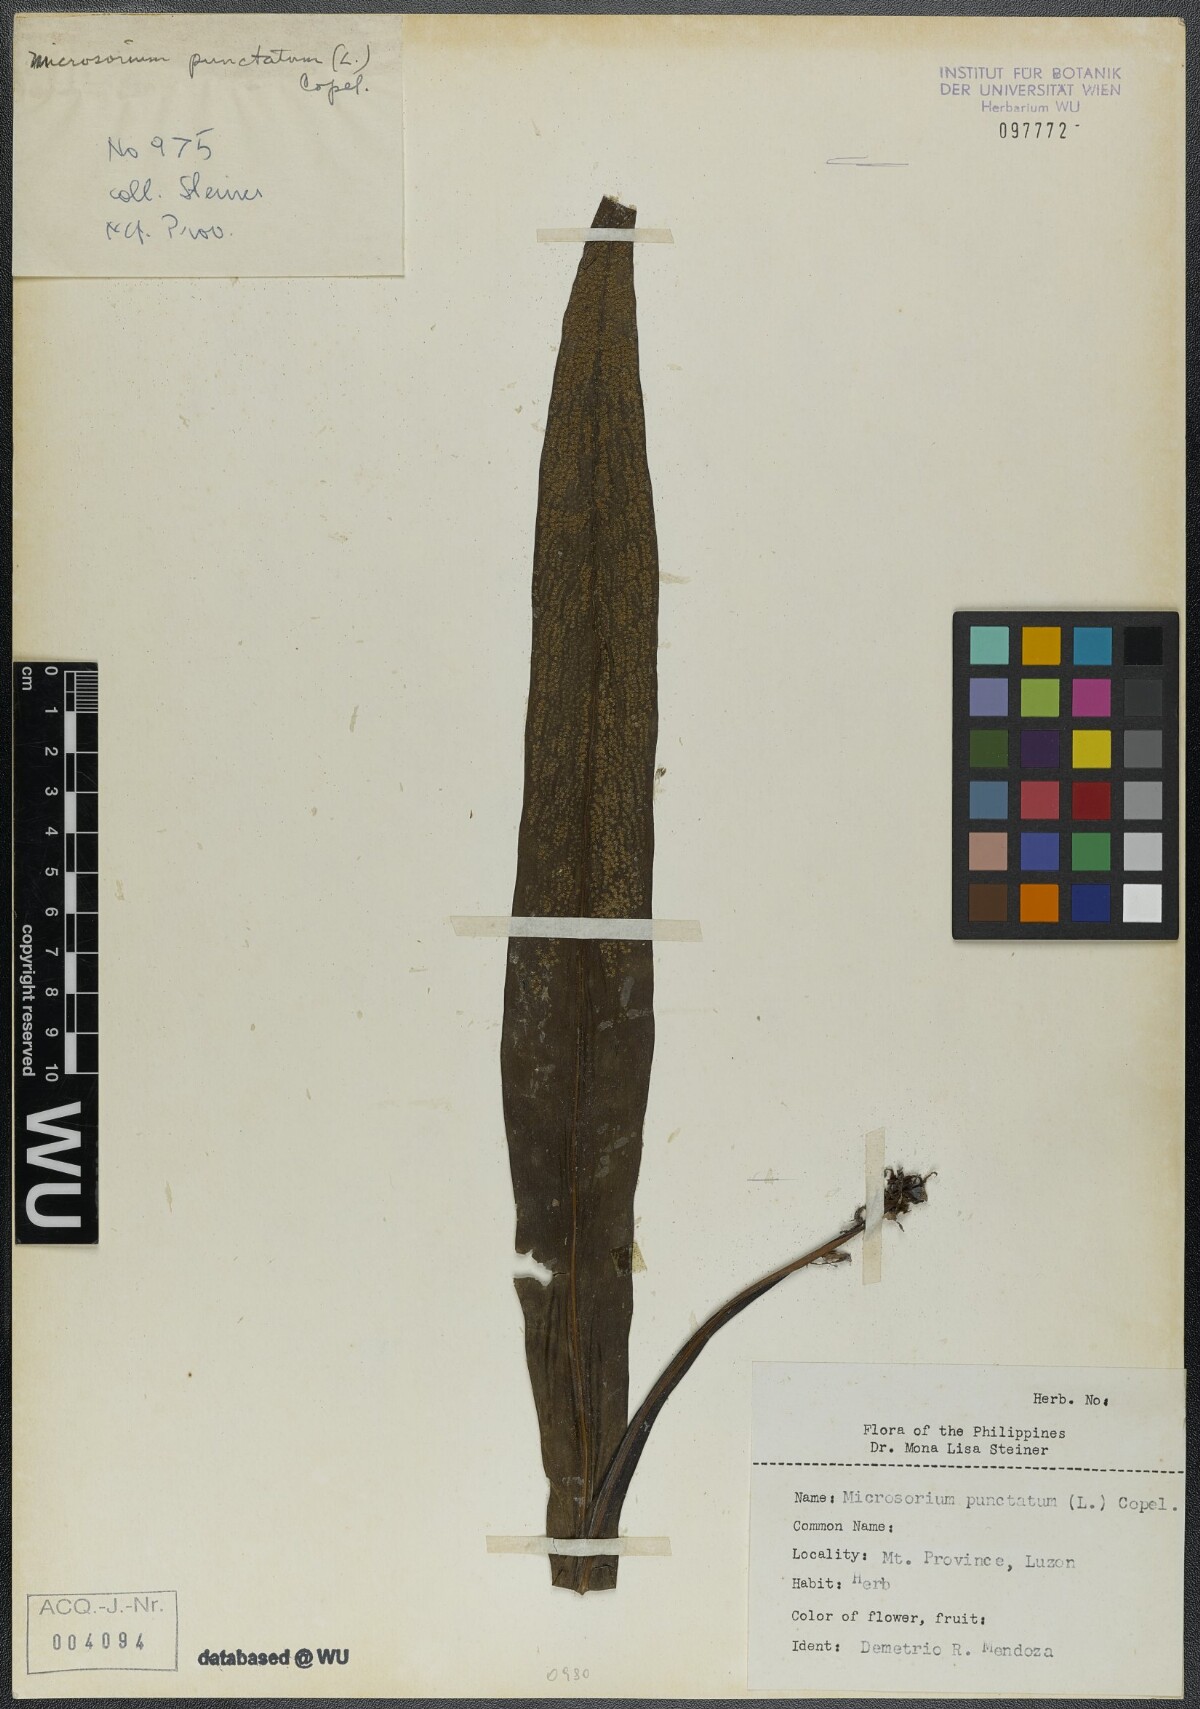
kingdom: Plantae
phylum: Tracheophyta
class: Polypodiopsida
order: Polypodiales
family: Polypodiaceae
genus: Microsorum
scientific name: Microsorum punctatum
